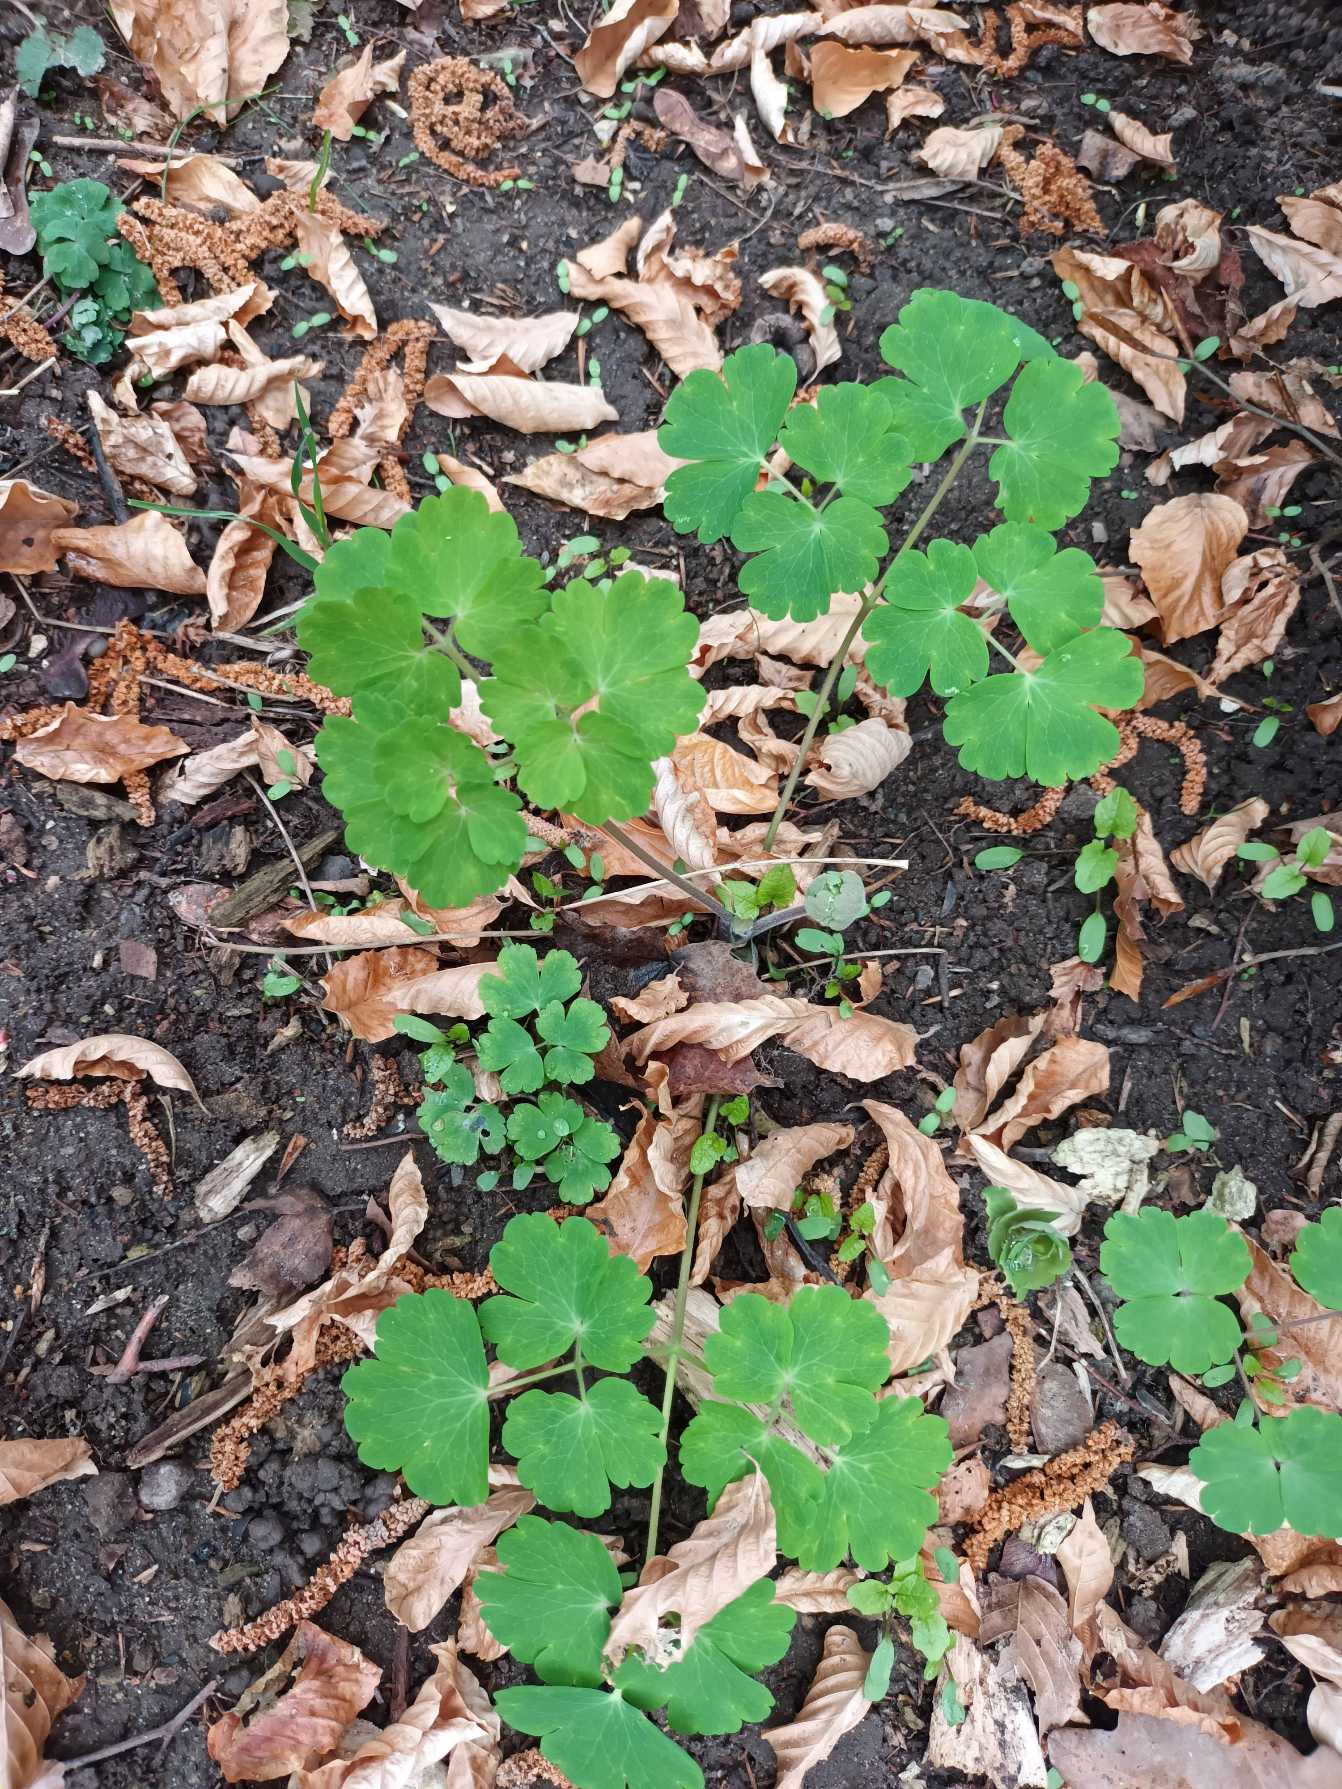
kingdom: Plantae
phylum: Tracheophyta
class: Magnoliopsida
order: Ranunculales
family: Ranunculaceae
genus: Aquilegia
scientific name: Aquilegia vulgaris
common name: Akeleje
